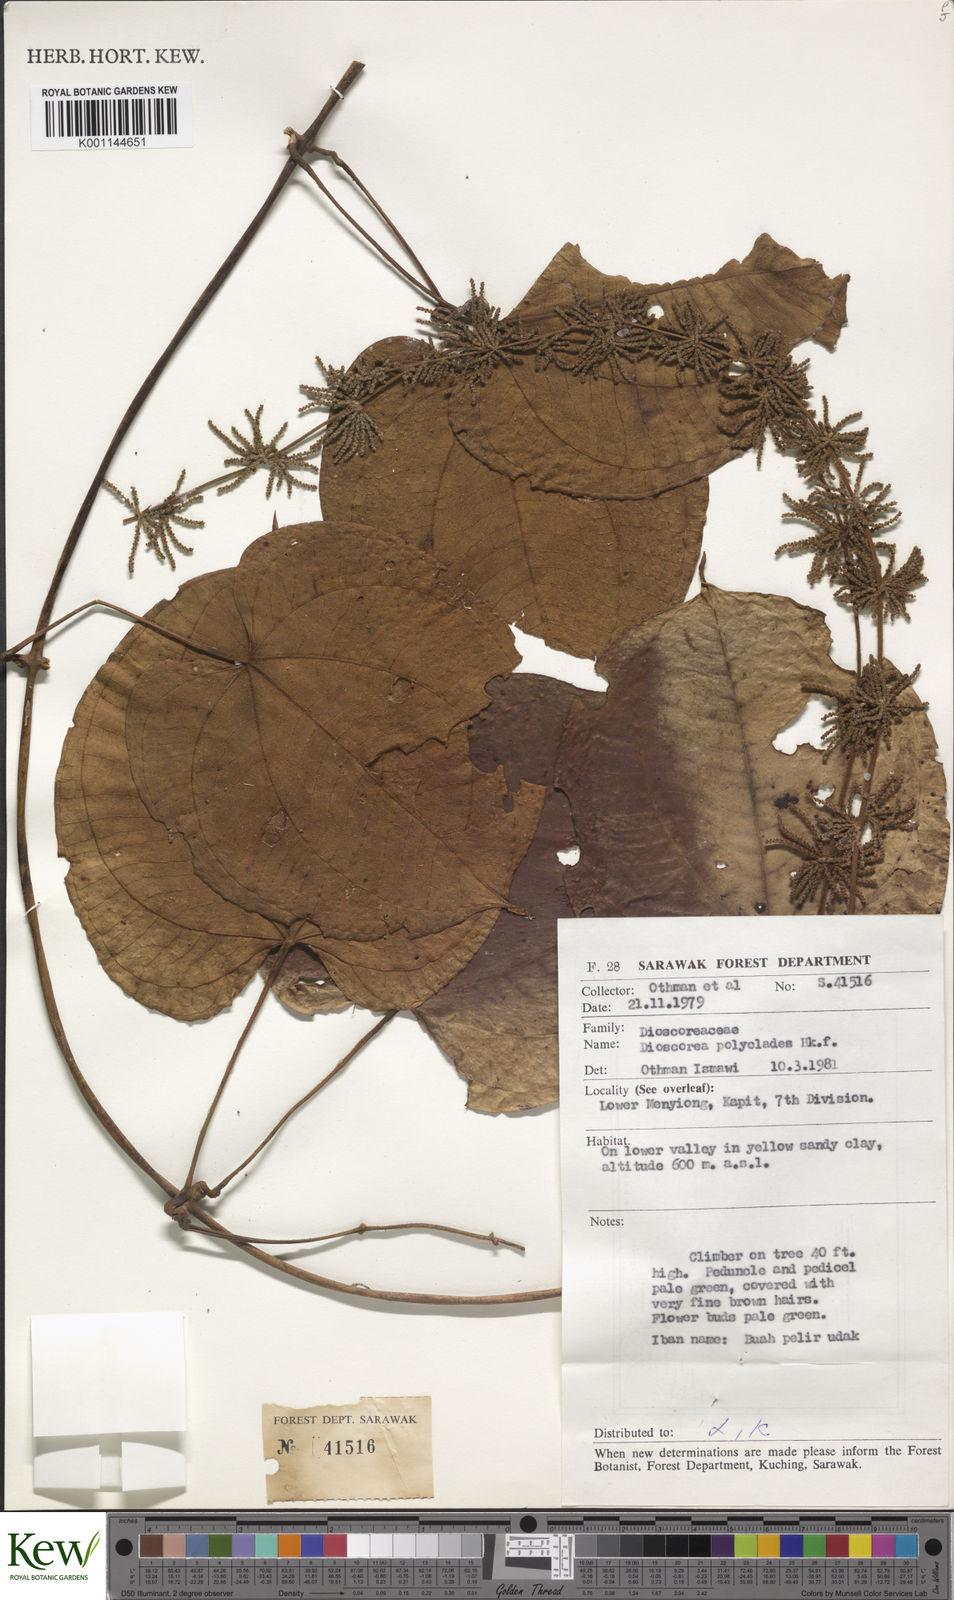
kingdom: Plantae
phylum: Tracheophyta
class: Liliopsida
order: Dioscoreales
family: Dioscoreaceae
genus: Dioscorea
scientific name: Dioscorea polyclados
